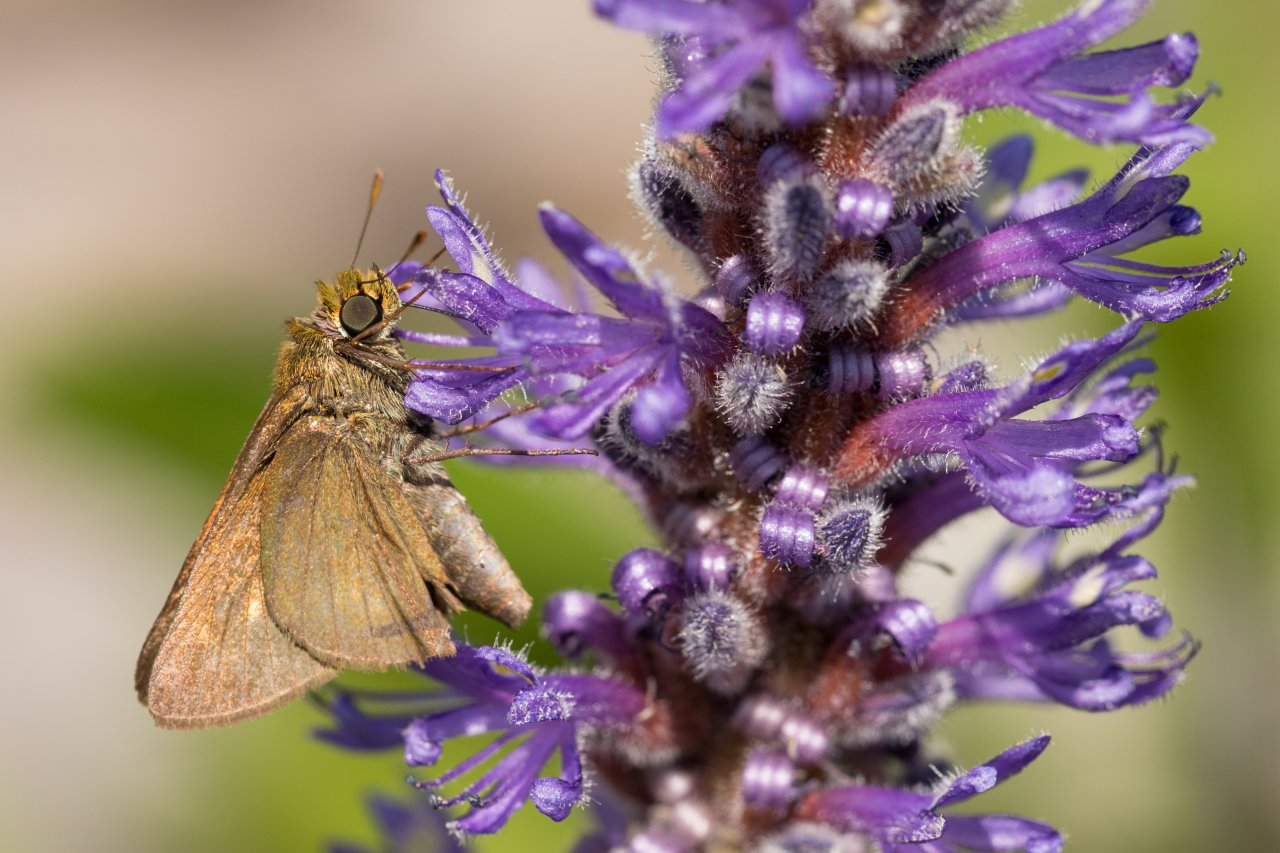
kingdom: Animalia
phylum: Arthropoda
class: Insecta
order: Lepidoptera
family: Hesperiidae
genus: Euphyes
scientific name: Euphyes vestris
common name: Dun Skipper
